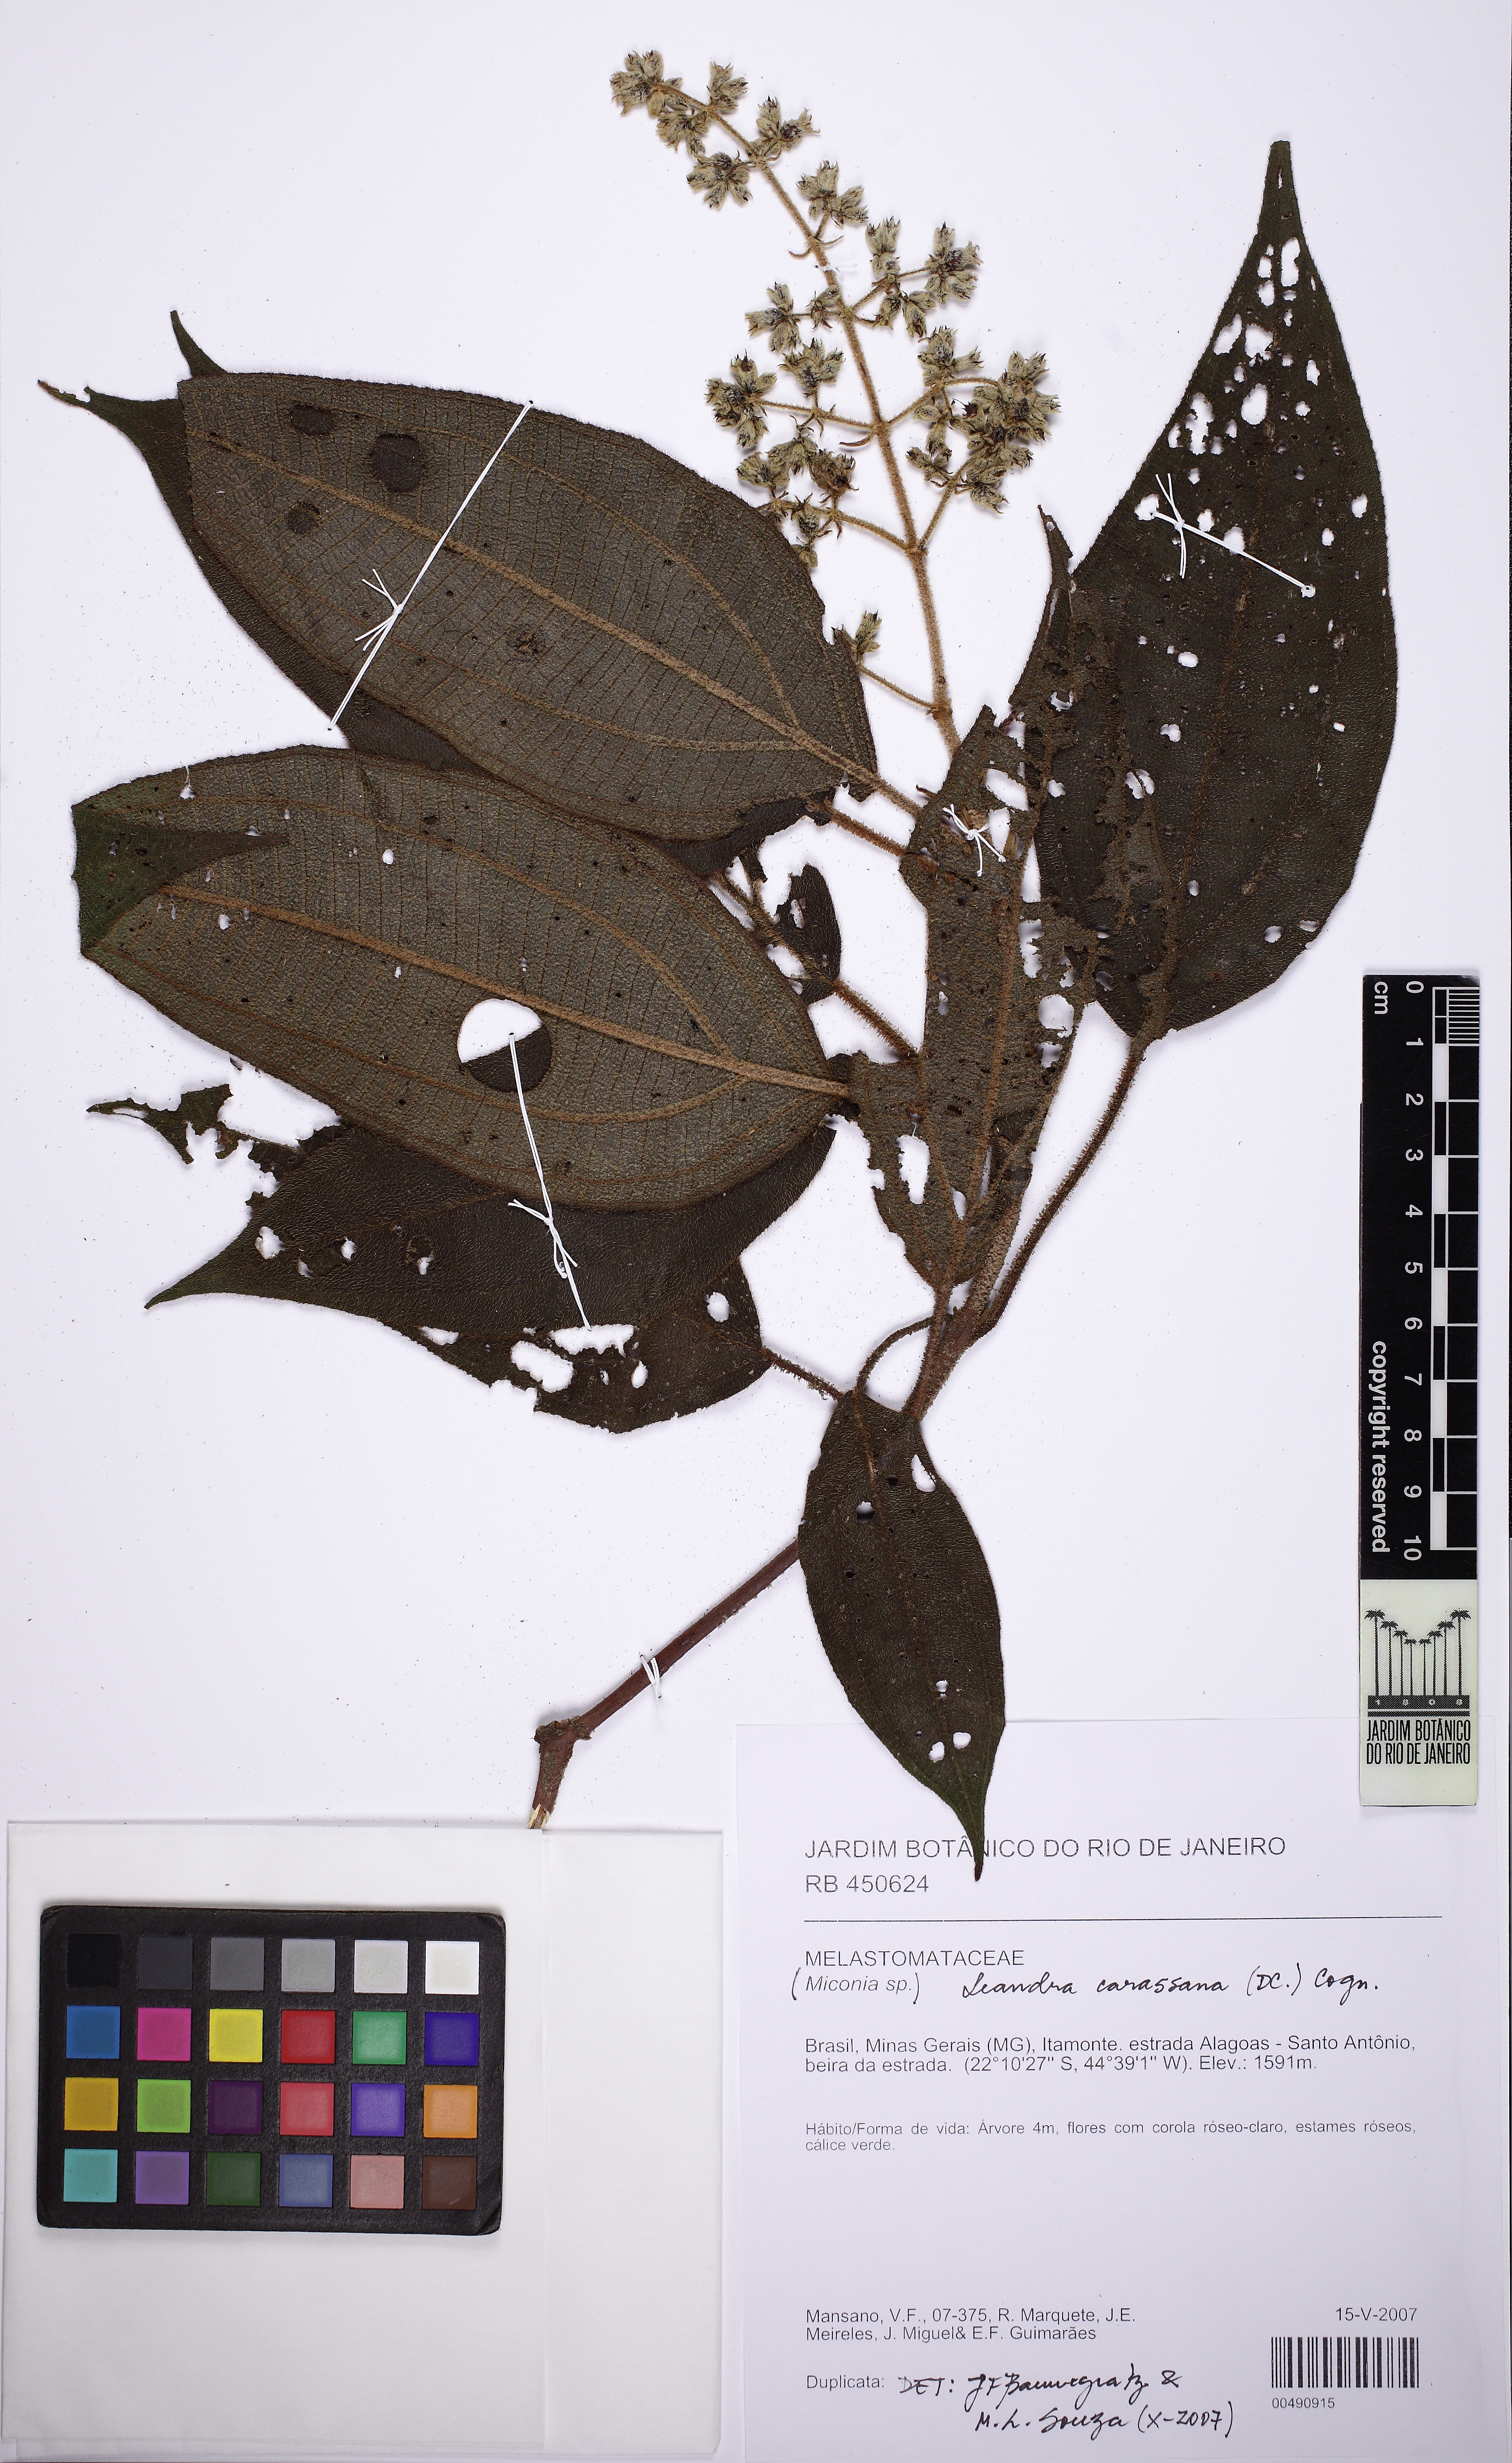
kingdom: Plantae
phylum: Tracheophyta
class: Magnoliopsida
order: Myrtales
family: Melastomataceae
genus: Miconia
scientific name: Miconia sublanata
